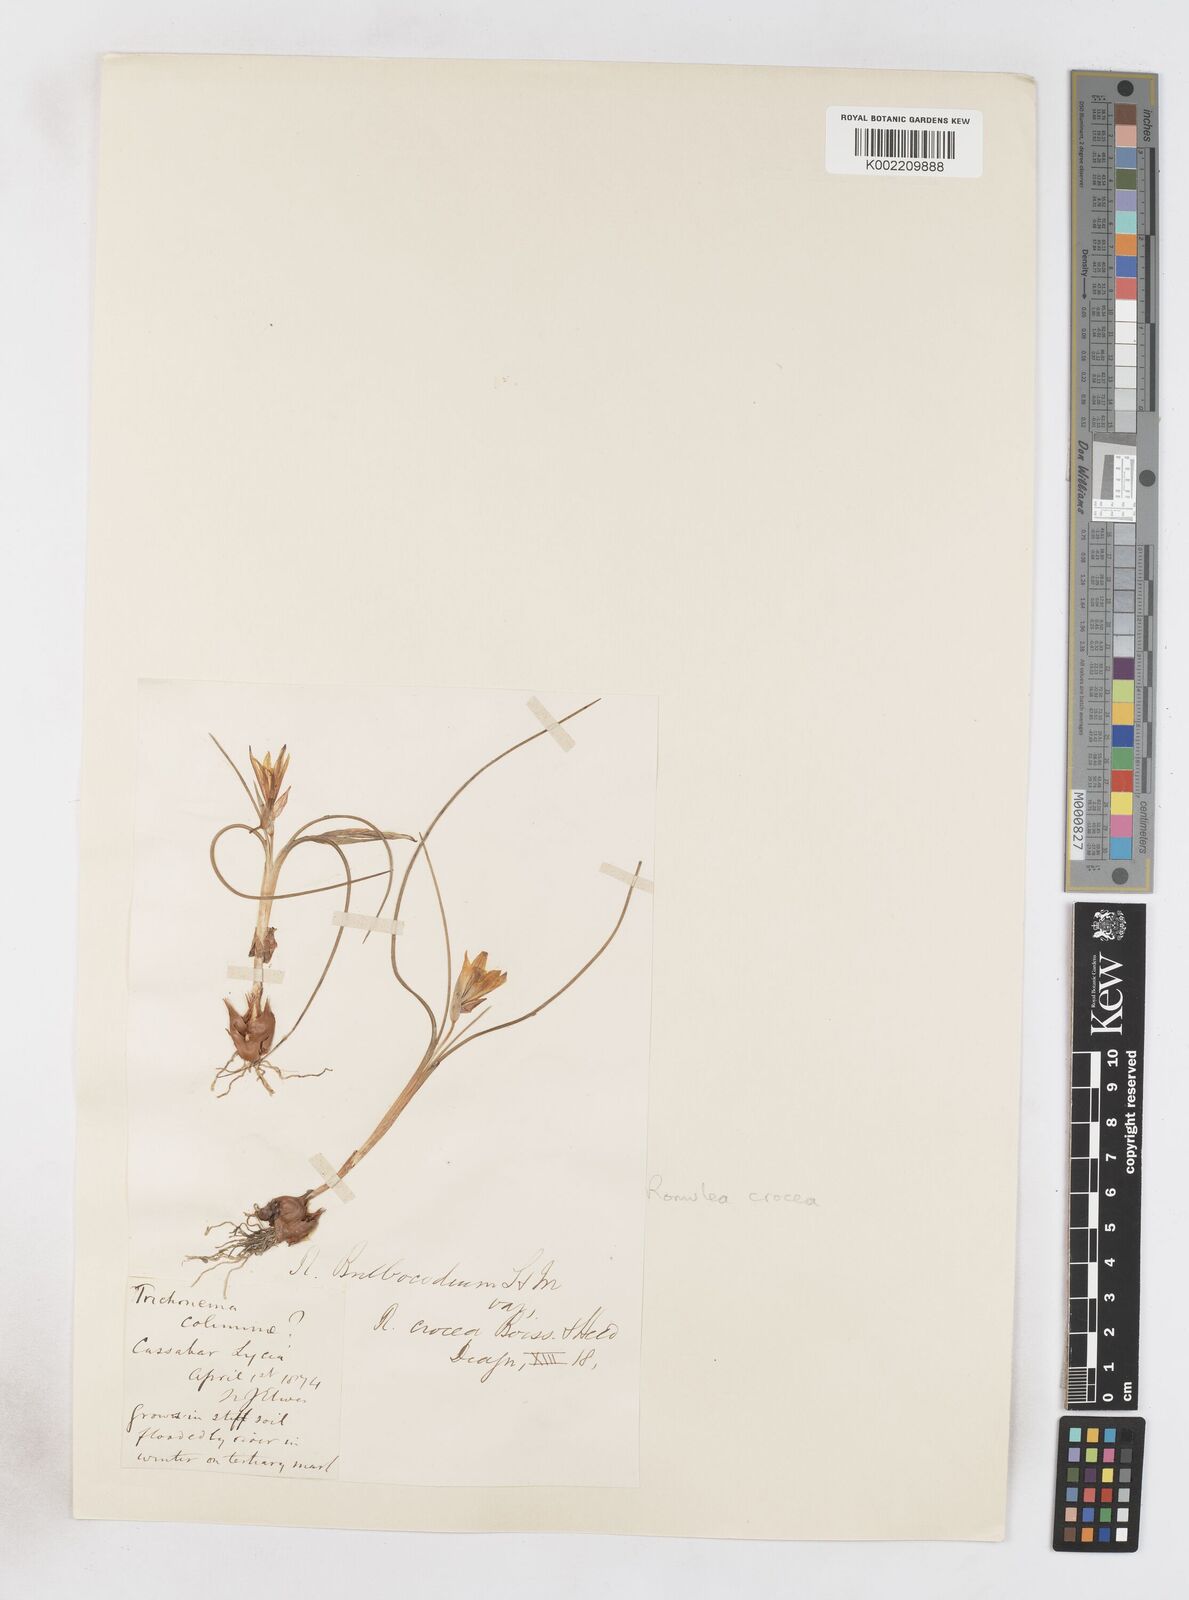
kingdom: Plantae
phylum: Tracheophyta
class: Liliopsida
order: Asparagales
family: Iridaceae
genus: Romulea
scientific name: Romulea bulbocodium
